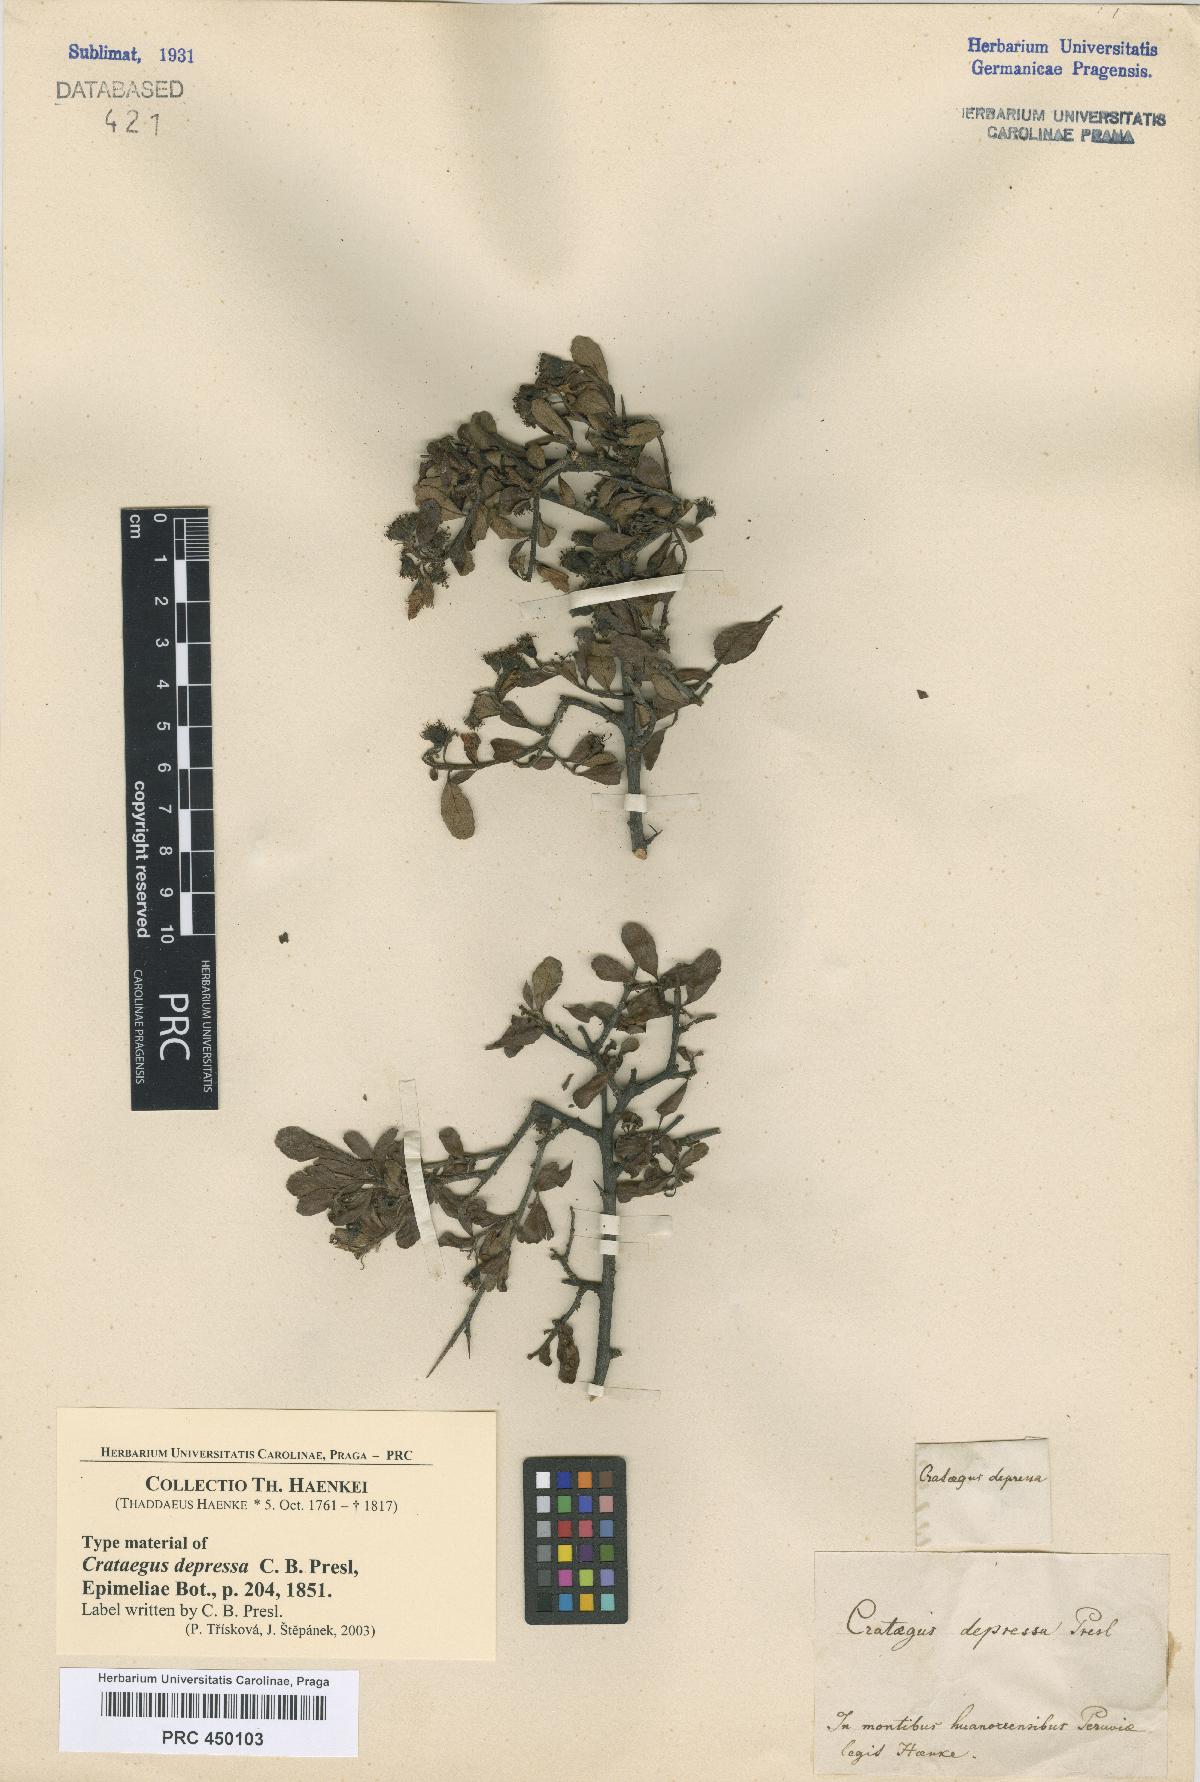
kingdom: Plantae
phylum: Tracheophyta
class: Magnoliopsida
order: Rosales
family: Rosaceae
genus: Crataegus
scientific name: Crataegus depressa
